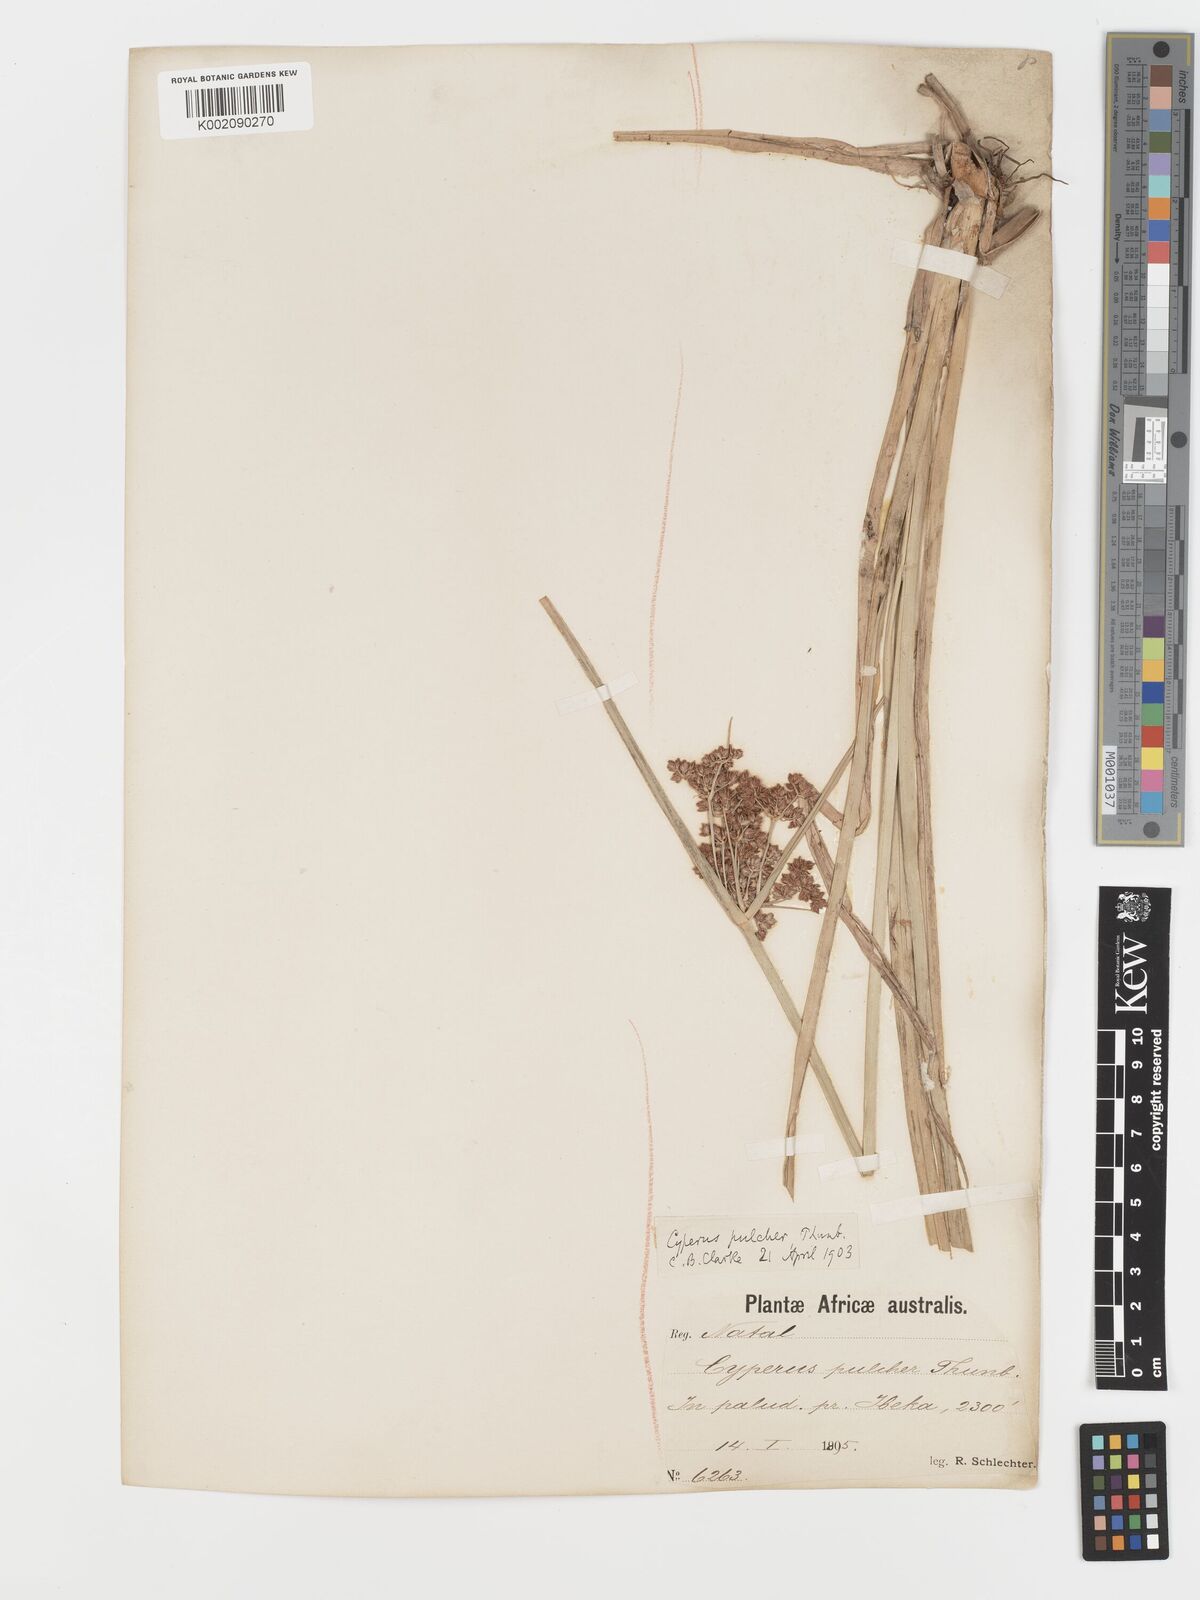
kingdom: Plantae
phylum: Tracheophyta
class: Liliopsida
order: Poales
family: Cyperaceae
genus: Cyperus
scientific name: Cyperus pulcher
